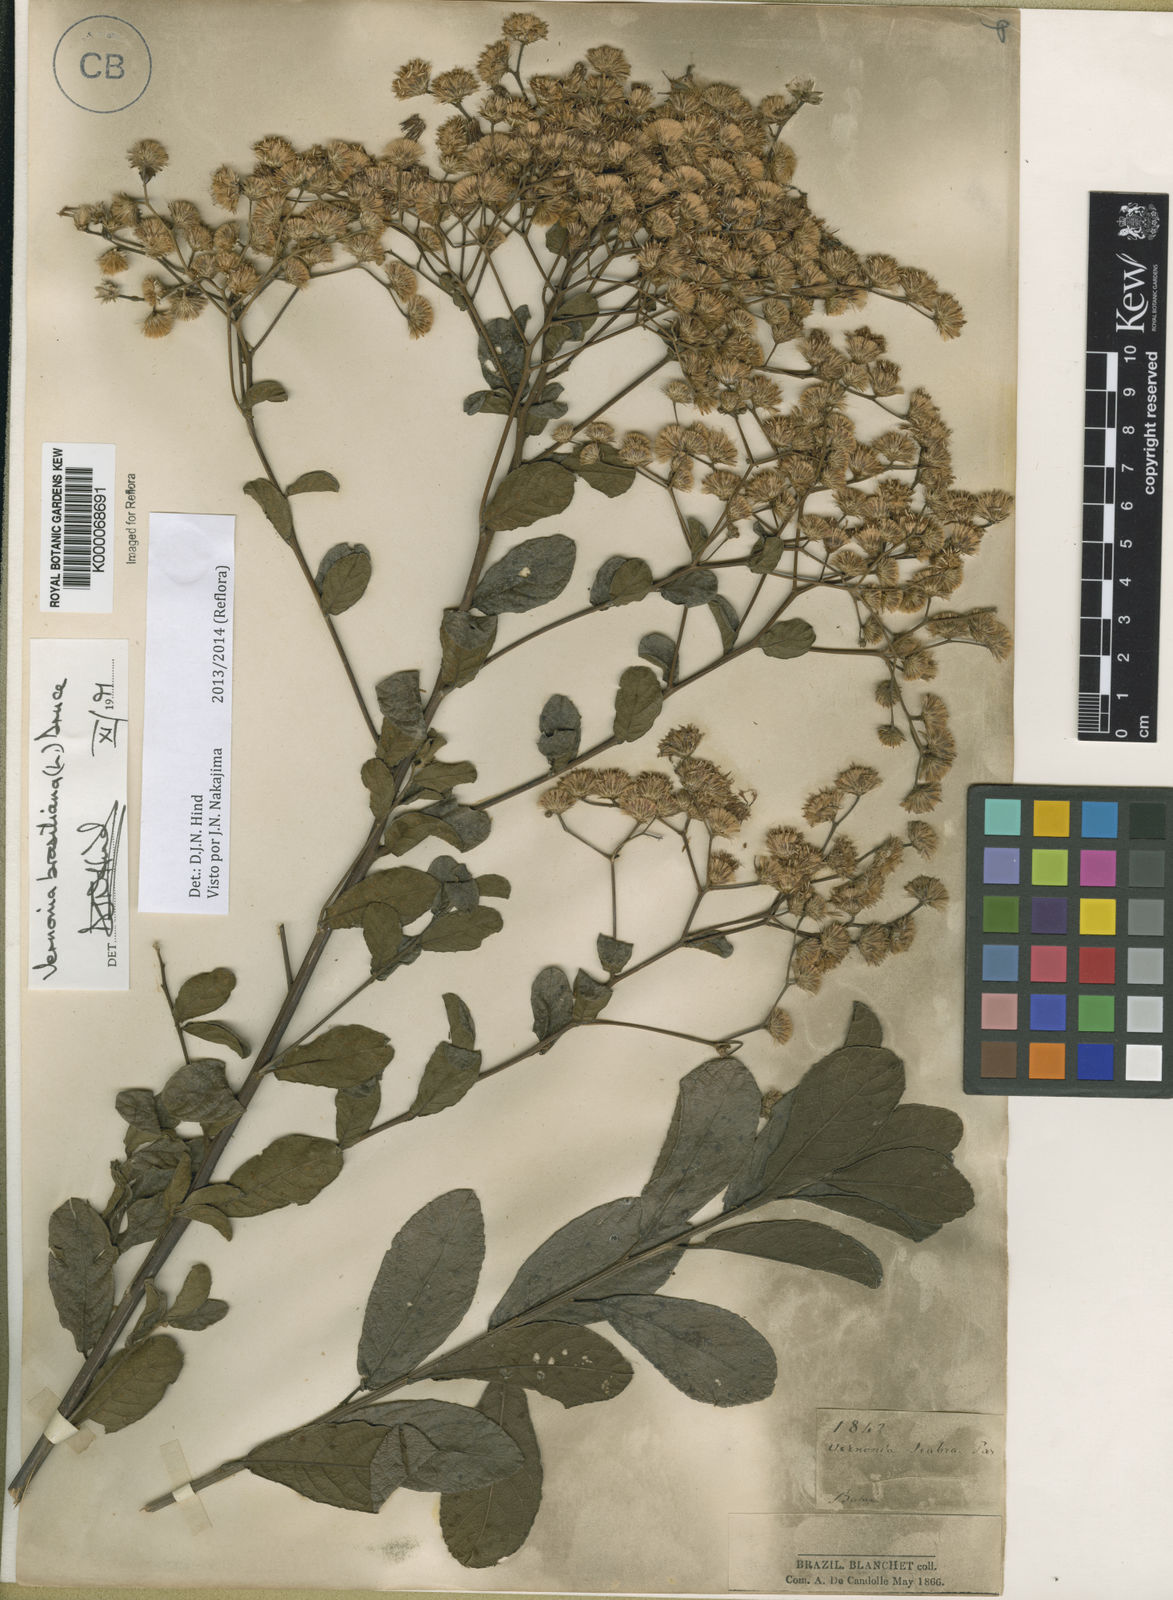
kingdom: Plantae
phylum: Tracheophyta
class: Magnoliopsida
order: Asterales
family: Asteraceae
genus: Vernonanthura
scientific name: Vernonanthura brasiliana
